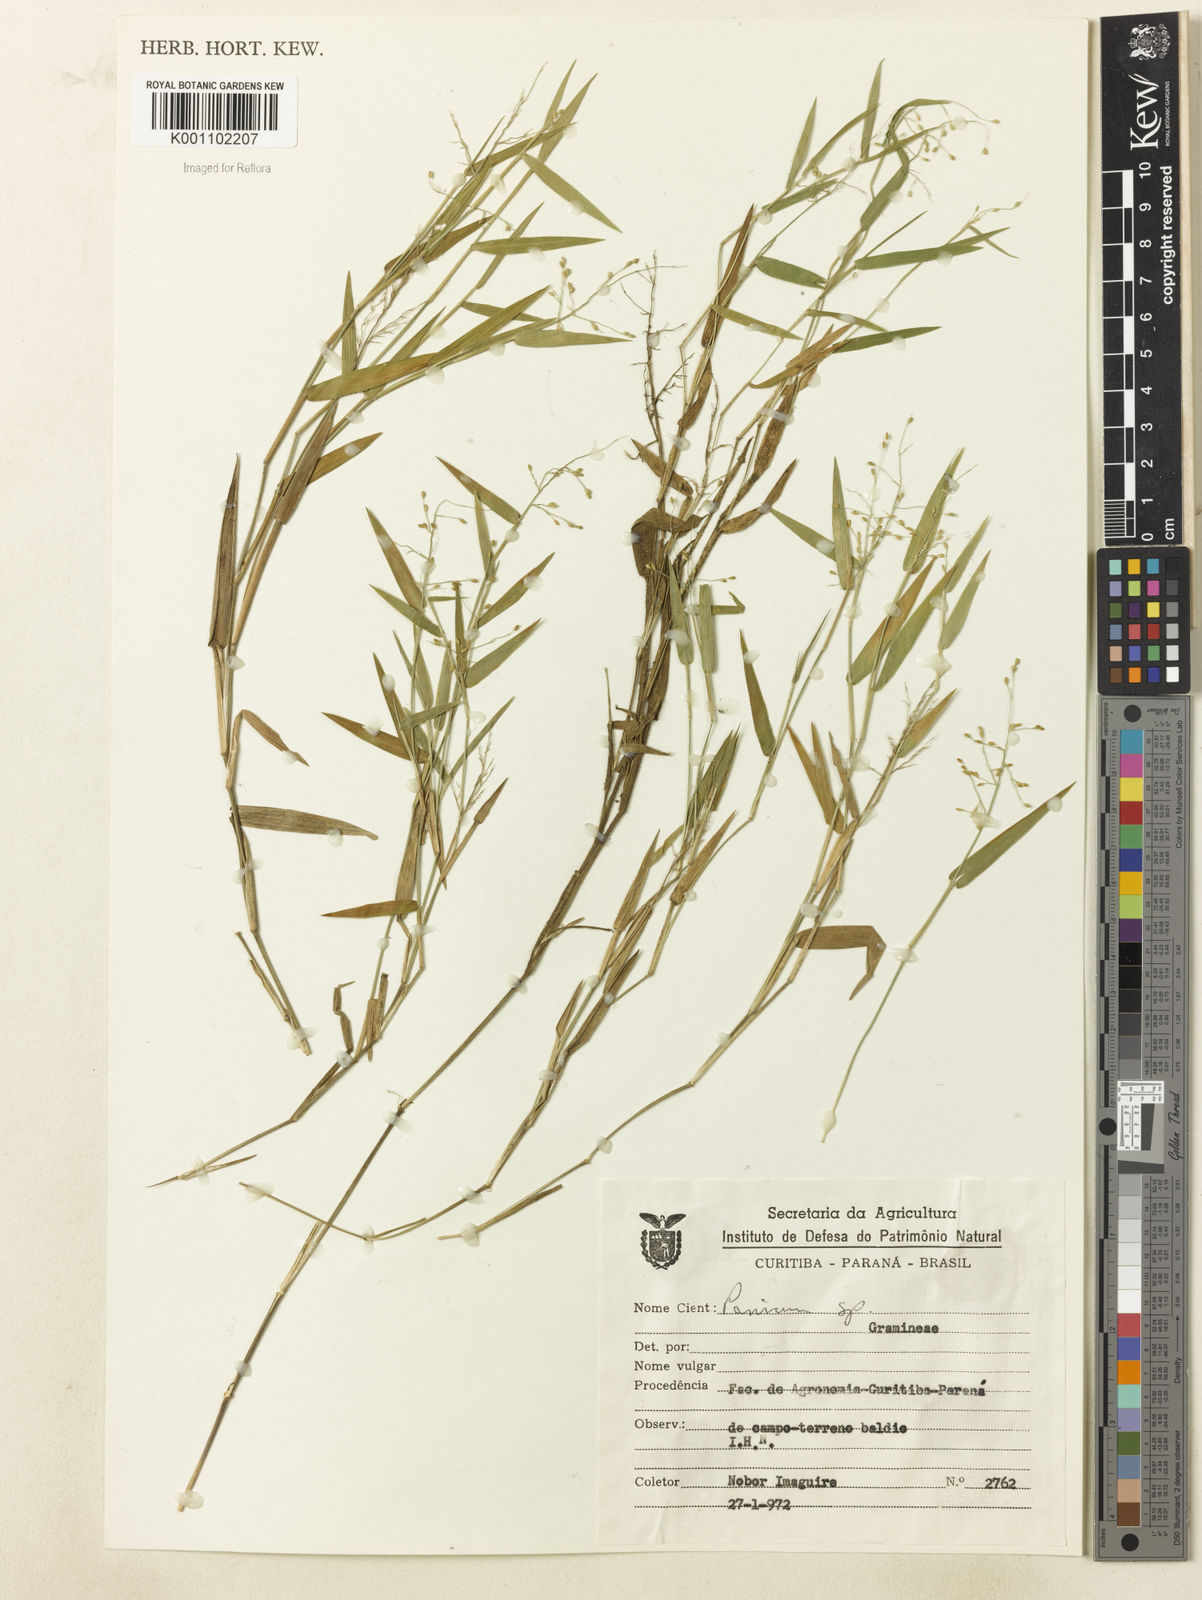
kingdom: Plantae
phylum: Tracheophyta
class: Liliopsida
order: Poales
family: Poaceae
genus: Dichanthelium
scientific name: Dichanthelium sabulorum
